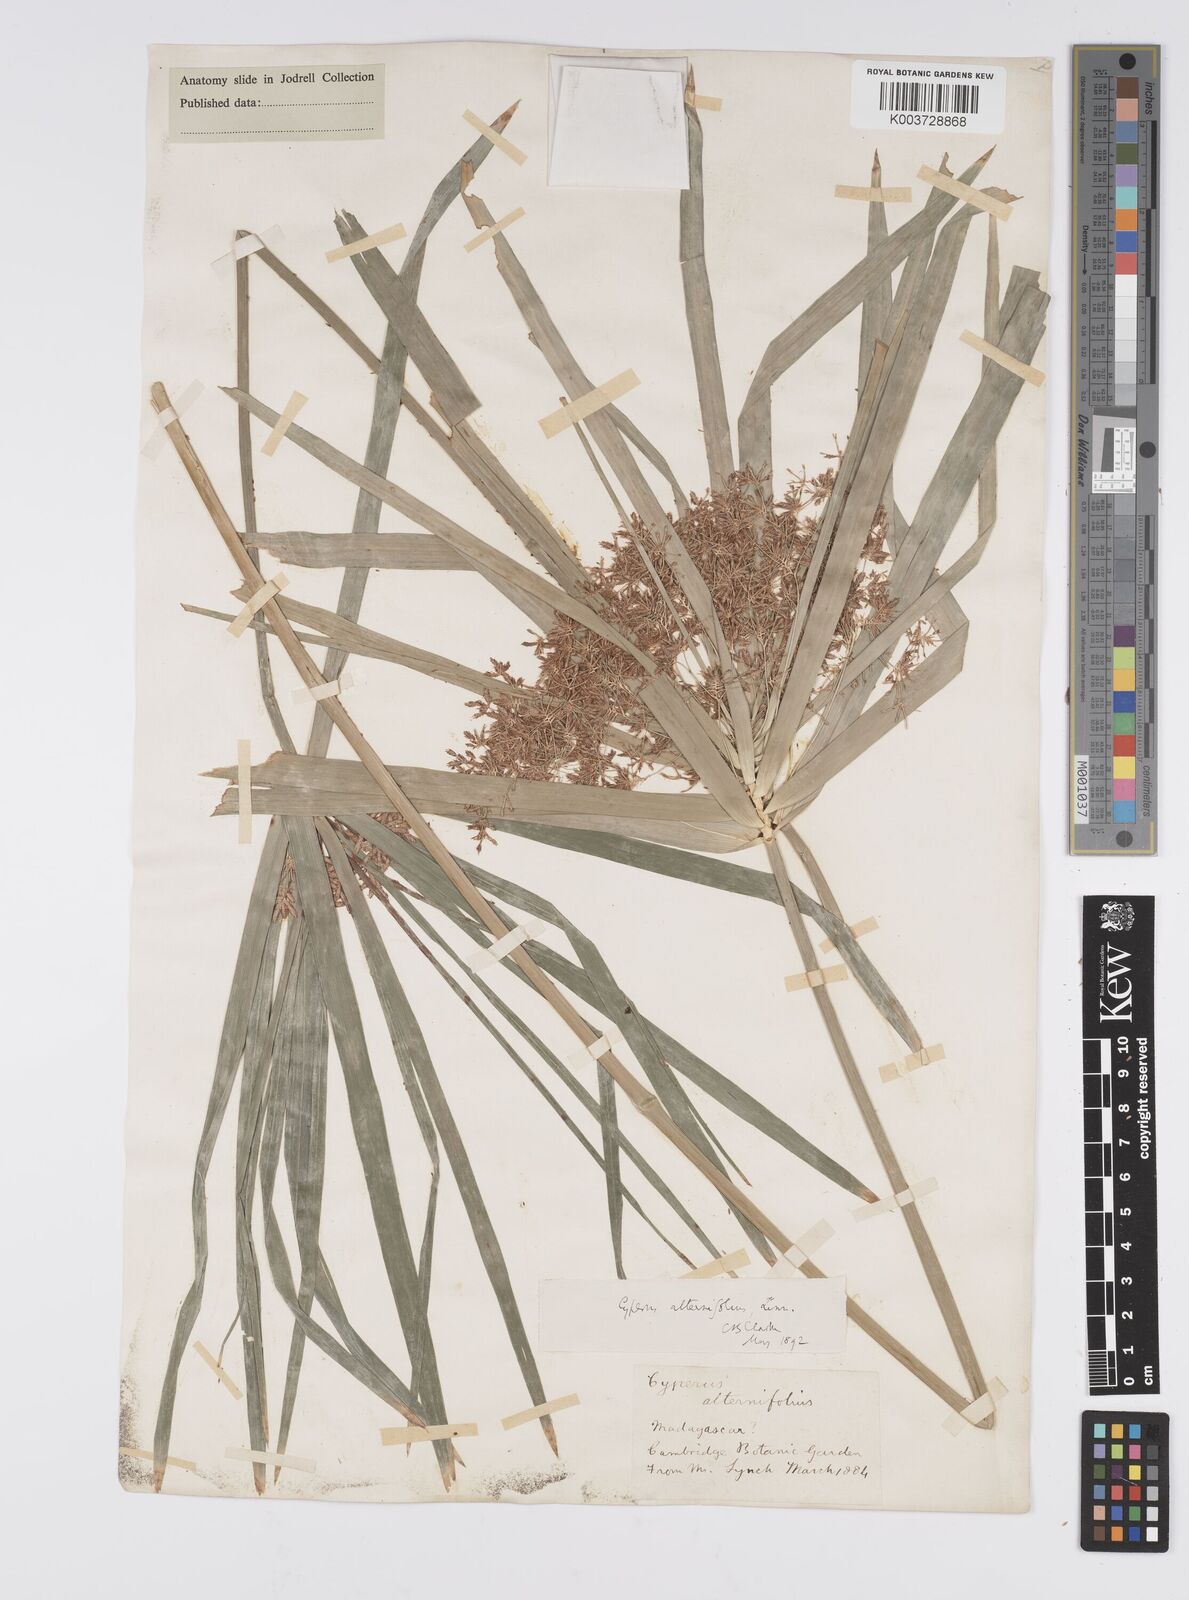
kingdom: Plantae
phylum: Tracheophyta
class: Liliopsida
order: Poales
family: Cyperaceae
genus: Cyperus
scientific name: Cyperus alternifolius
